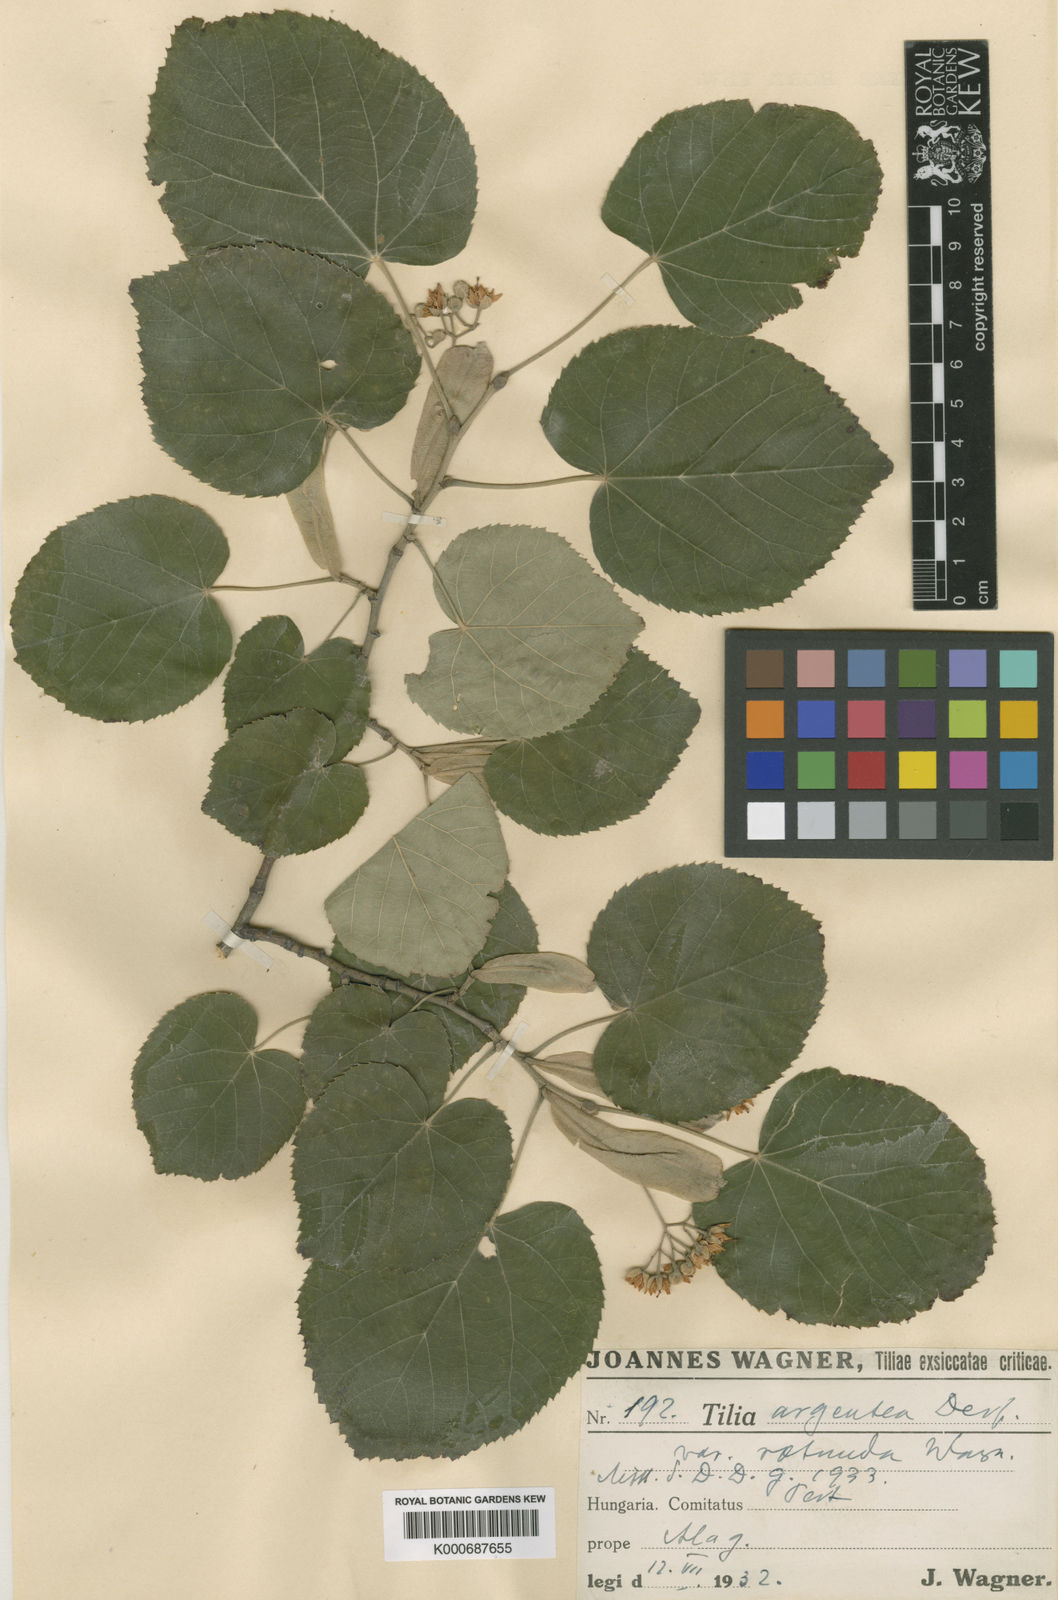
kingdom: Plantae
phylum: Tracheophyta
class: Magnoliopsida
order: Malvales
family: Malvaceae
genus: Tilia
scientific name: Tilia tomentosa
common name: Silver lime
